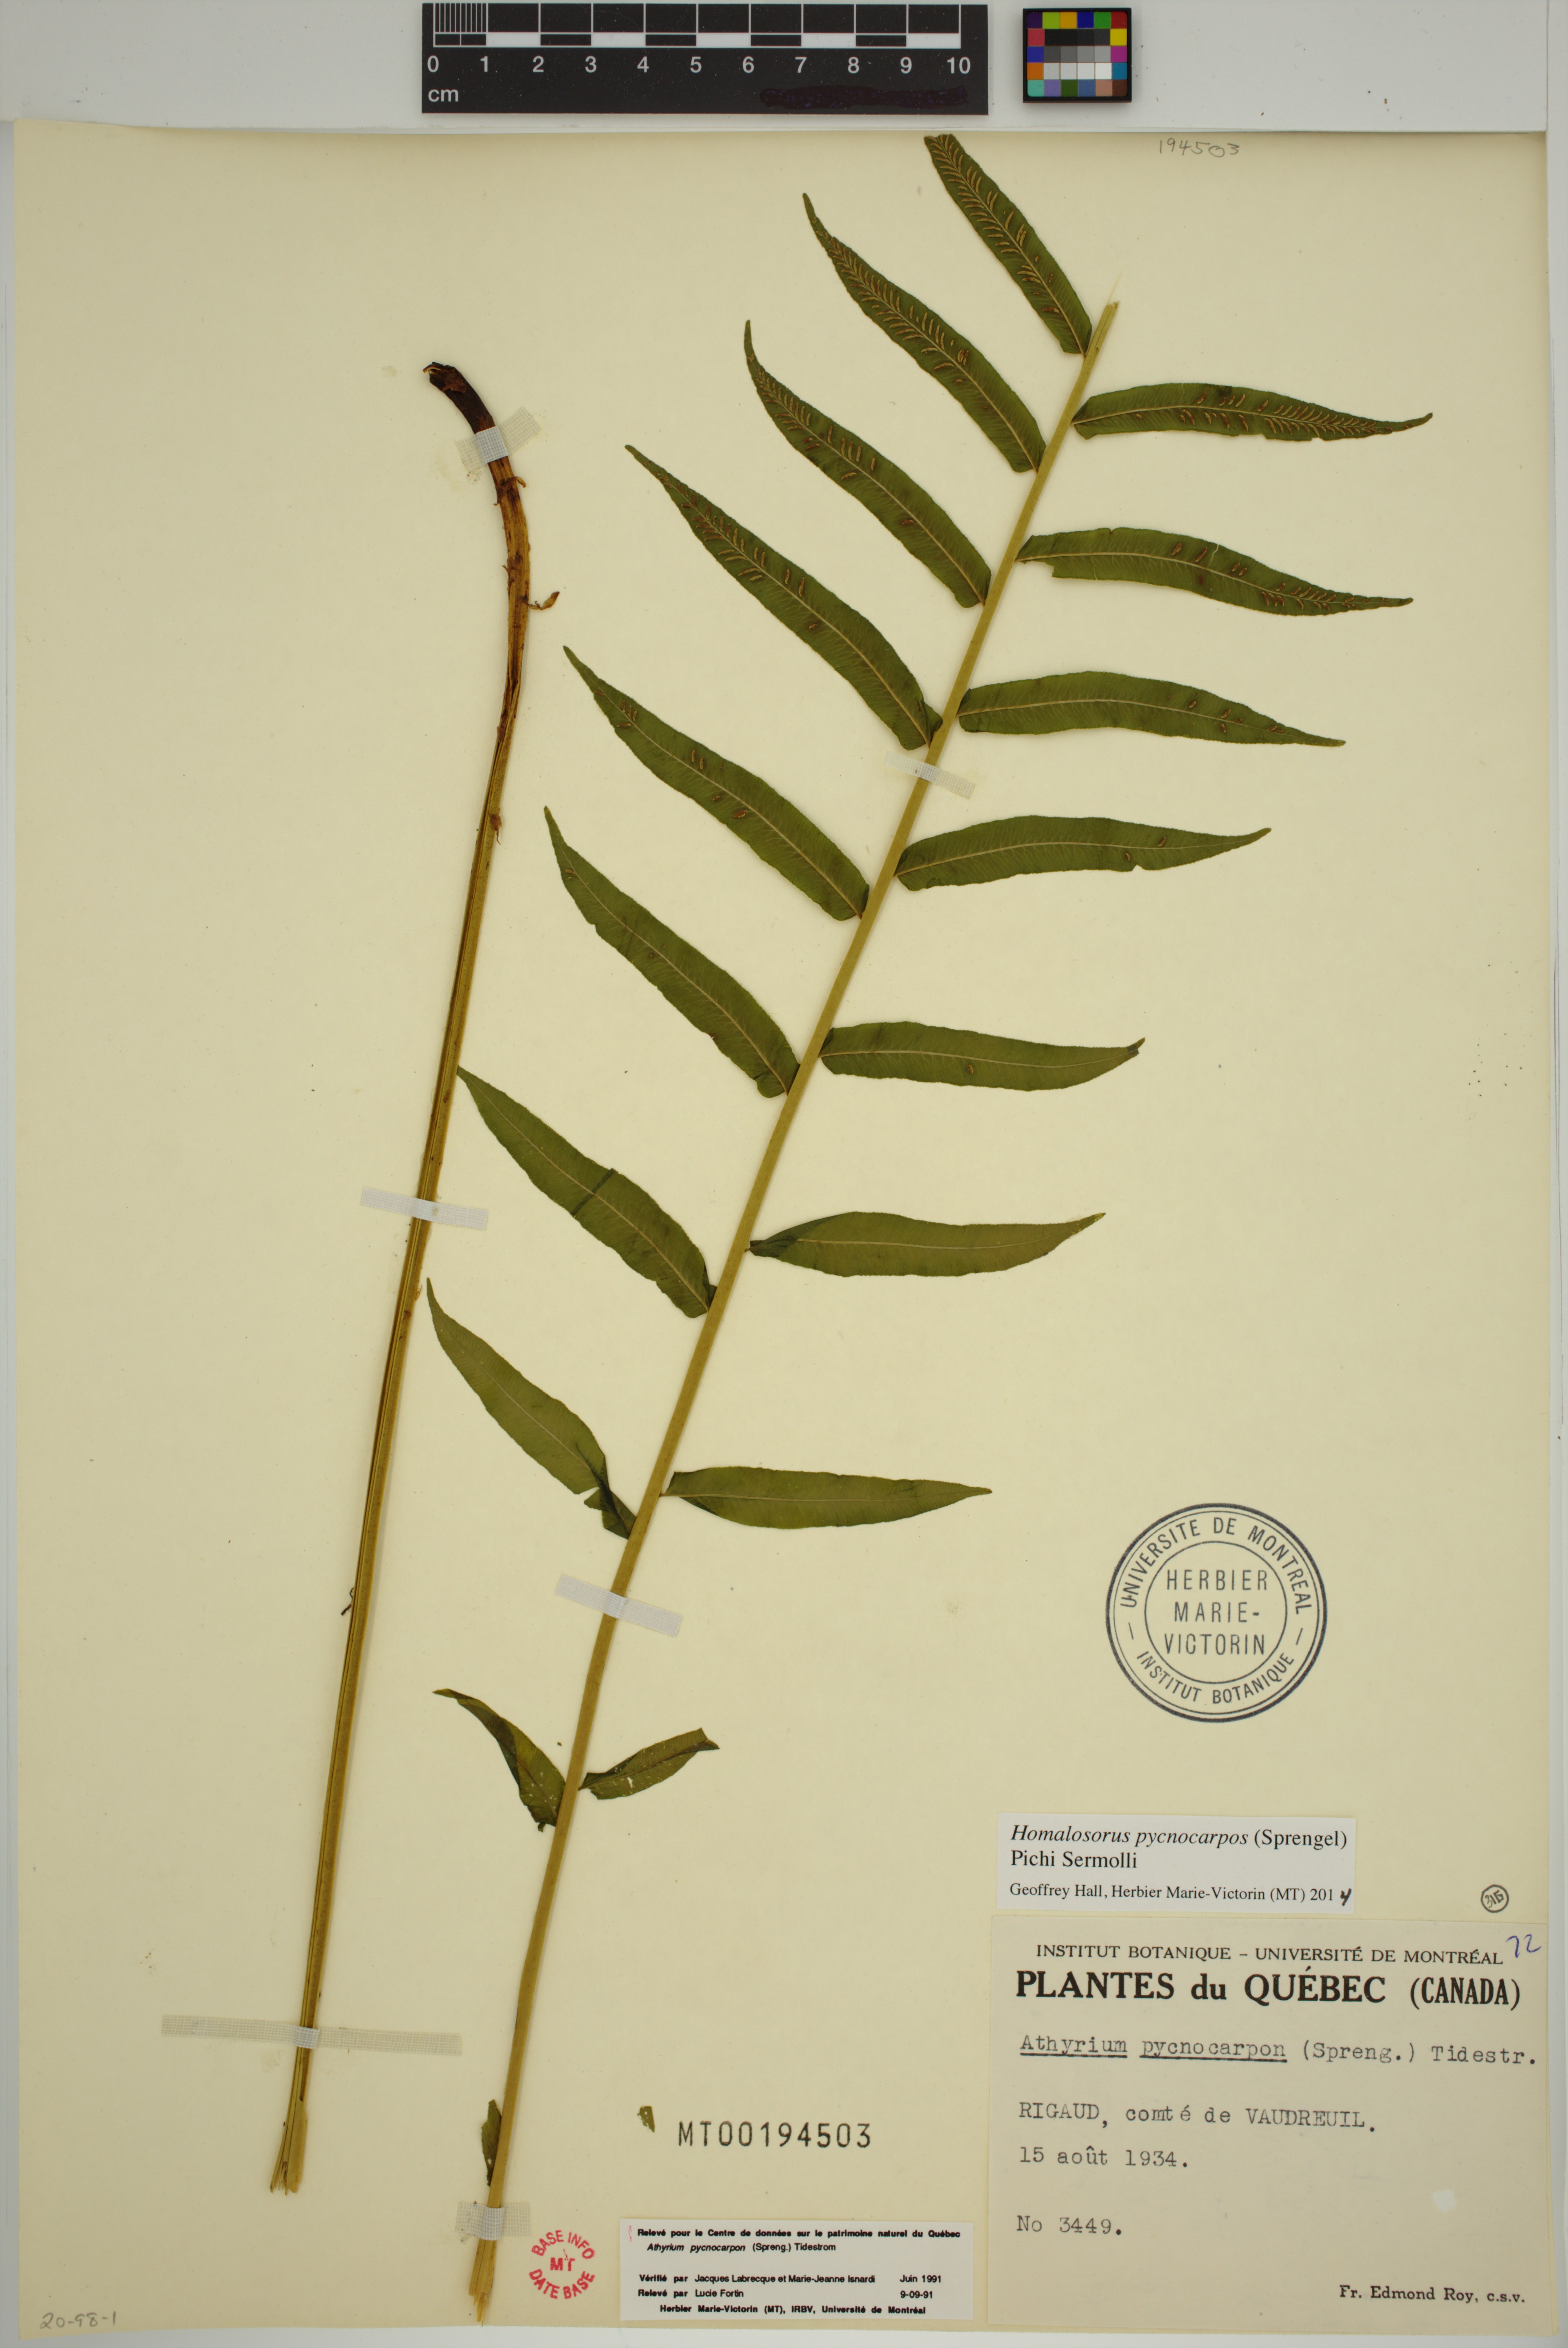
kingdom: Plantae
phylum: Tracheophyta
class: Polypodiopsida
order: Polypodiales
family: Diplaziopsidaceae
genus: Homalosorus
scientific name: Homalosorus pycnocarpos
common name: Glade fern
